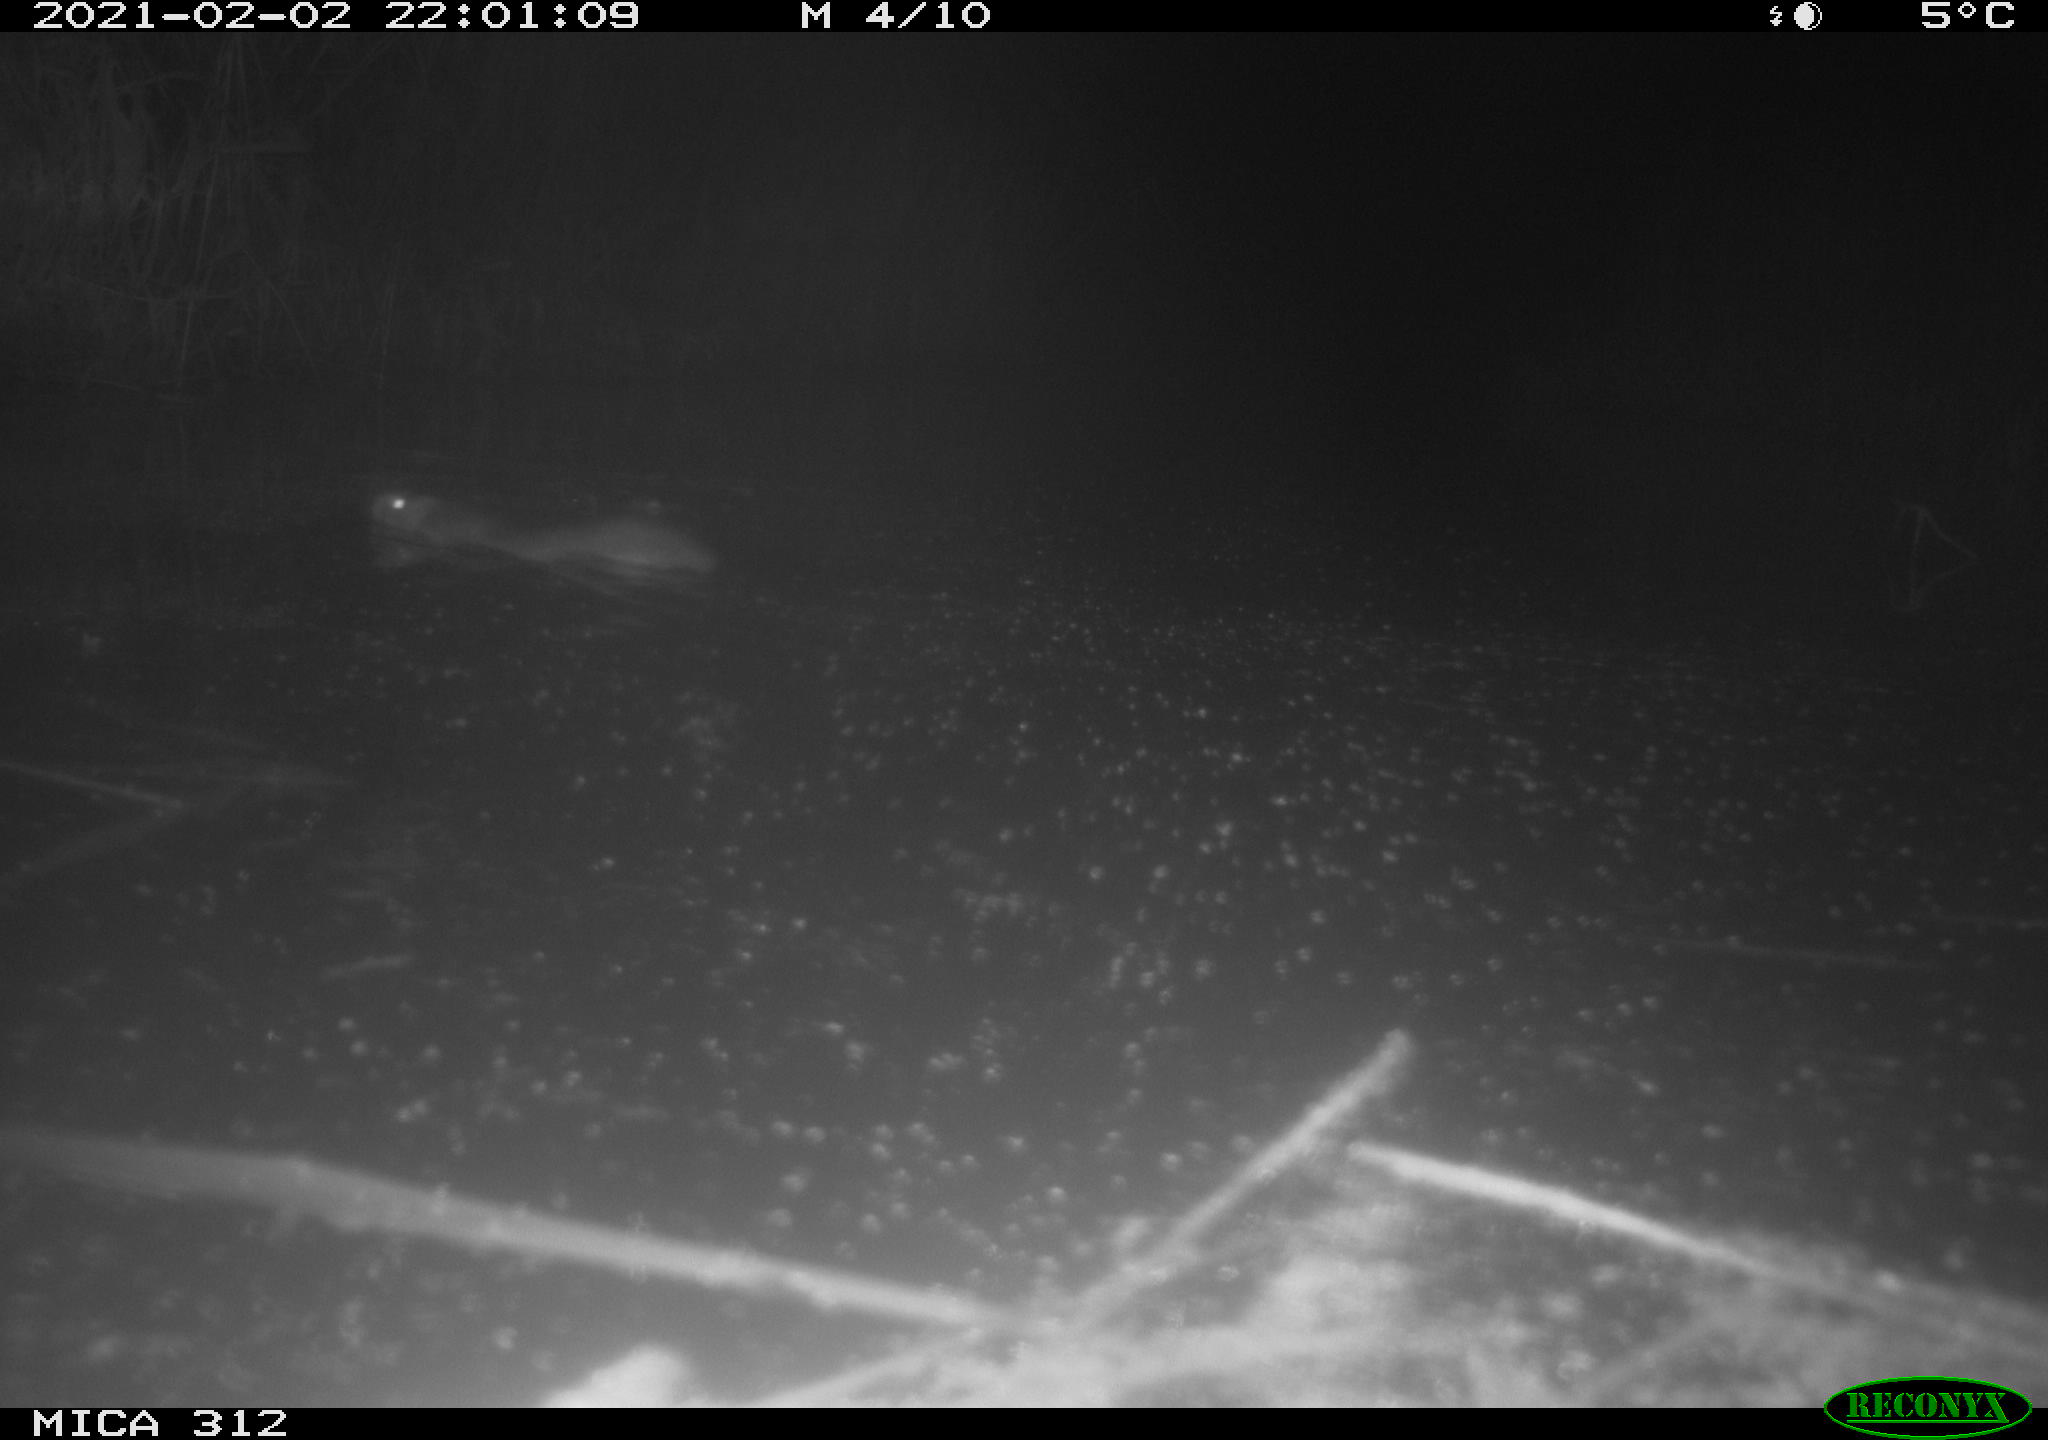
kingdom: Animalia
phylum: Chordata
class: Mammalia
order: Rodentia
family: Muridae
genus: Rattus
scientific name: Rattus norvegicus
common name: Brown rat
